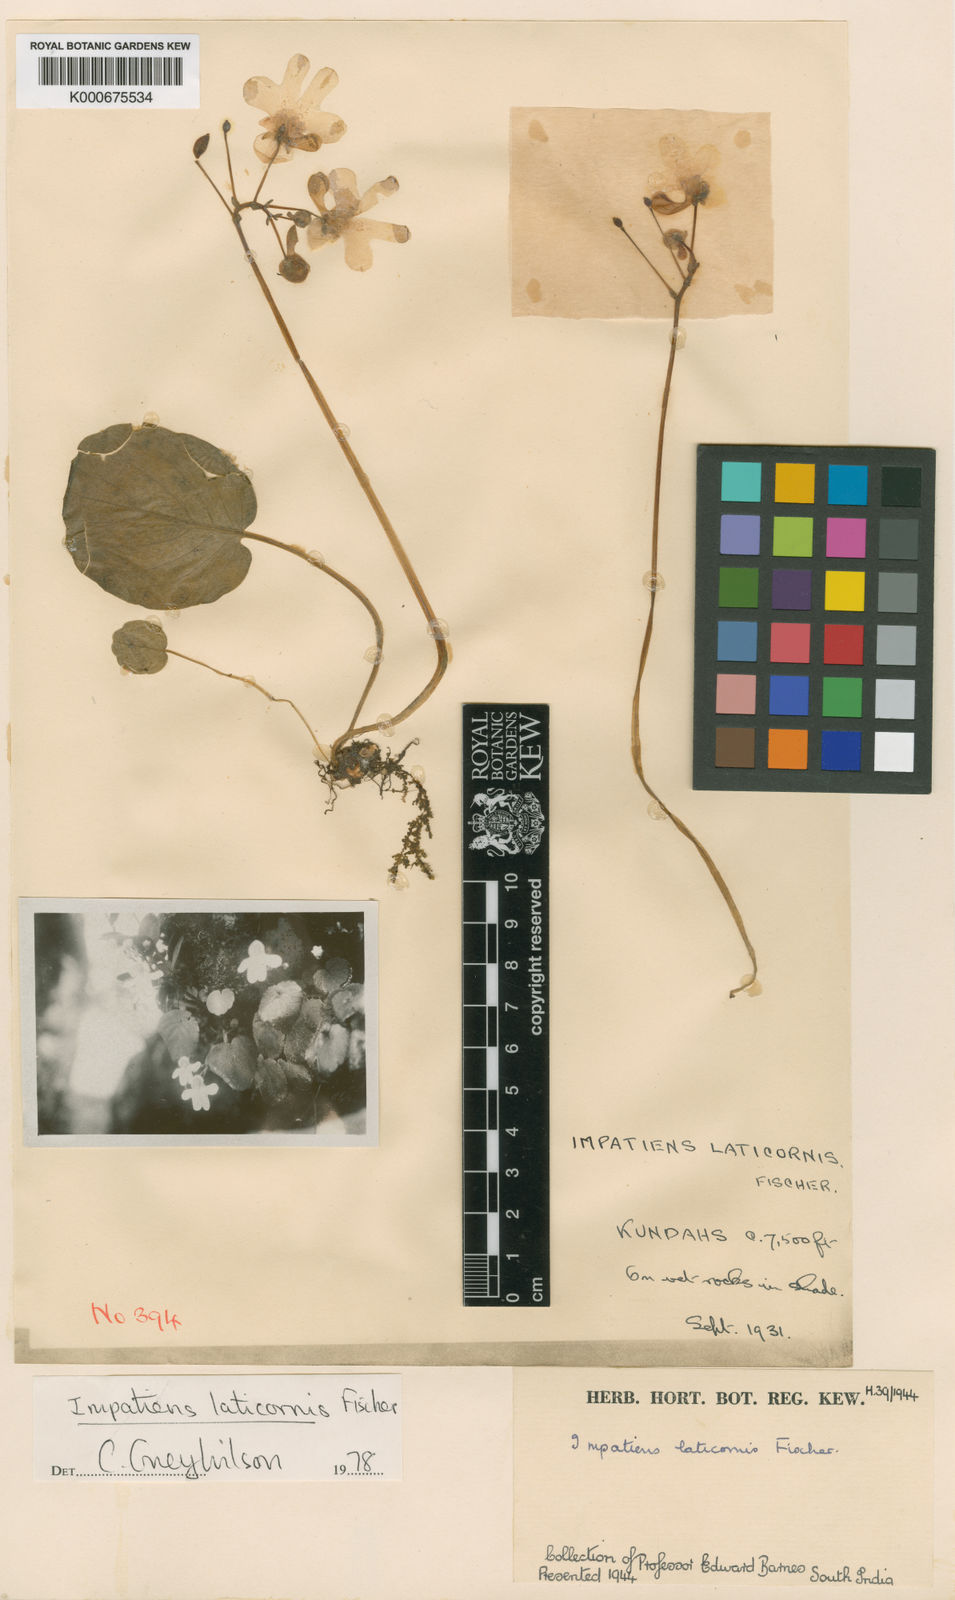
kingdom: Plantae
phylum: Tracheophyta
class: Magnoliopsida
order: Ericales
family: Balsaminaceae
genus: Impatiens
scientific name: Impatiens laticornis
